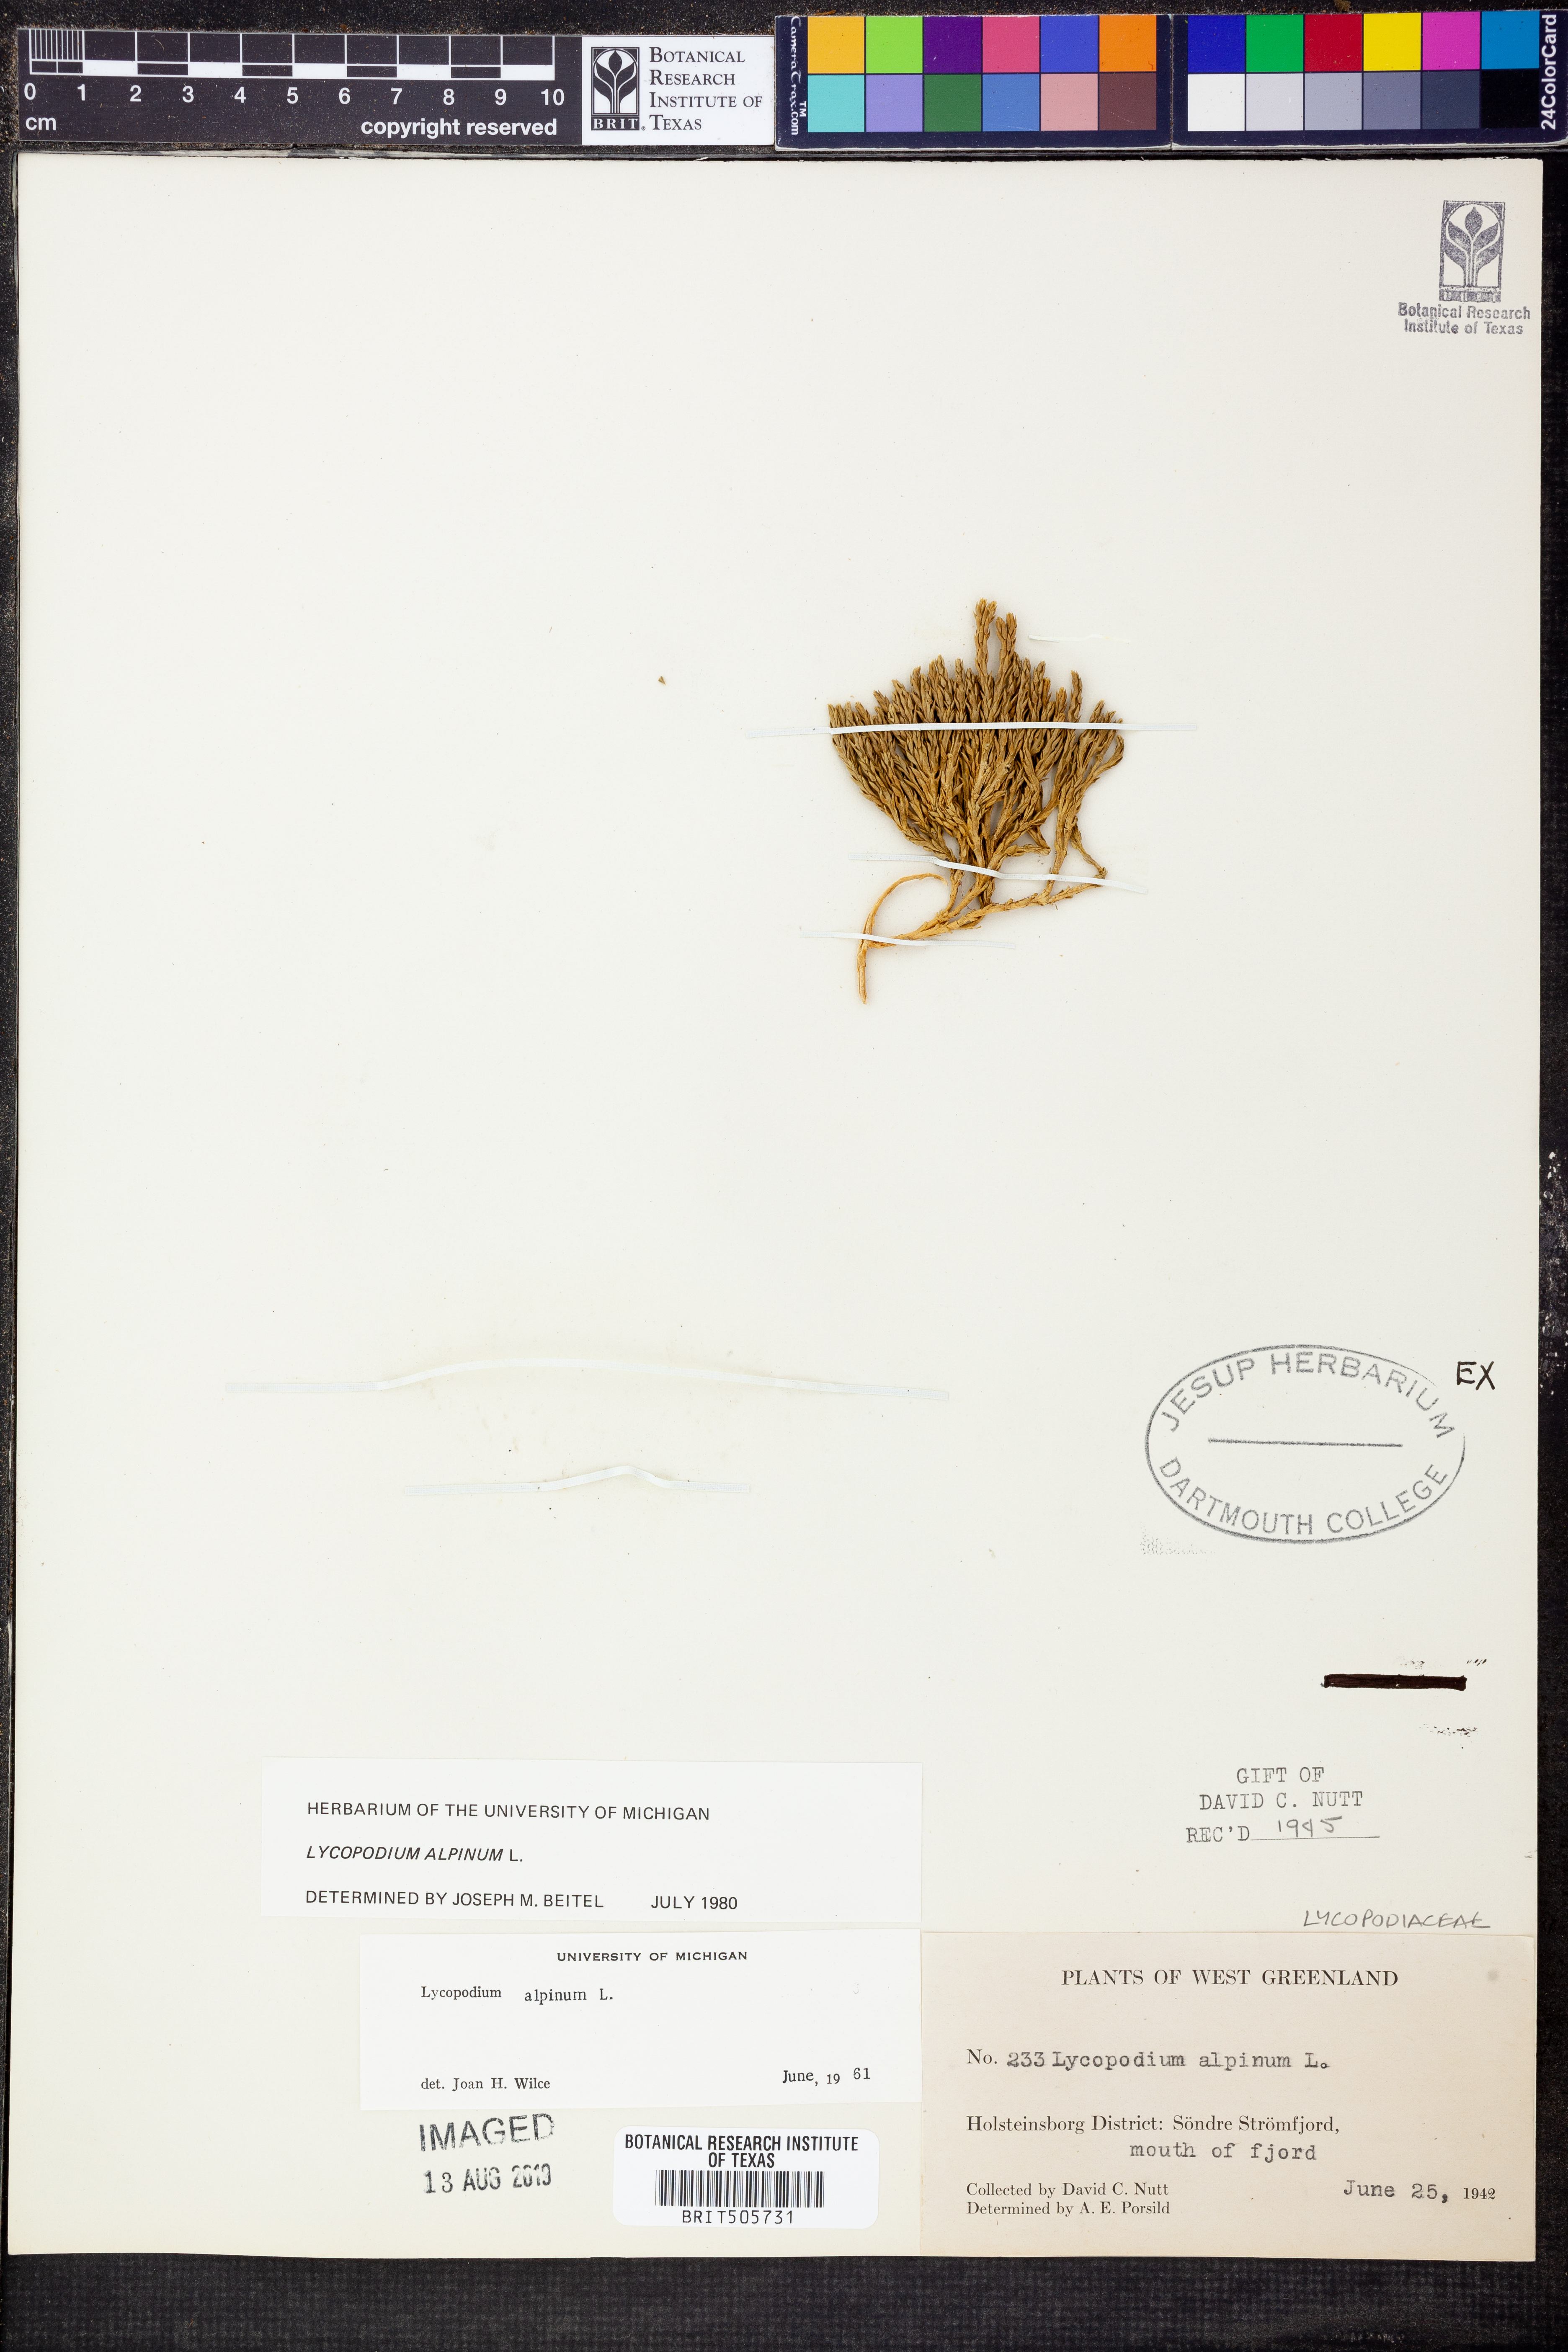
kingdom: Plantae
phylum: Tracheophyta
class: Lycopodiopsida
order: Lycopodiales
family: Lycopodiaceae
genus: Diphasiastrum
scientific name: Diphasiastrum alpinum
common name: Alpine clubmoss
